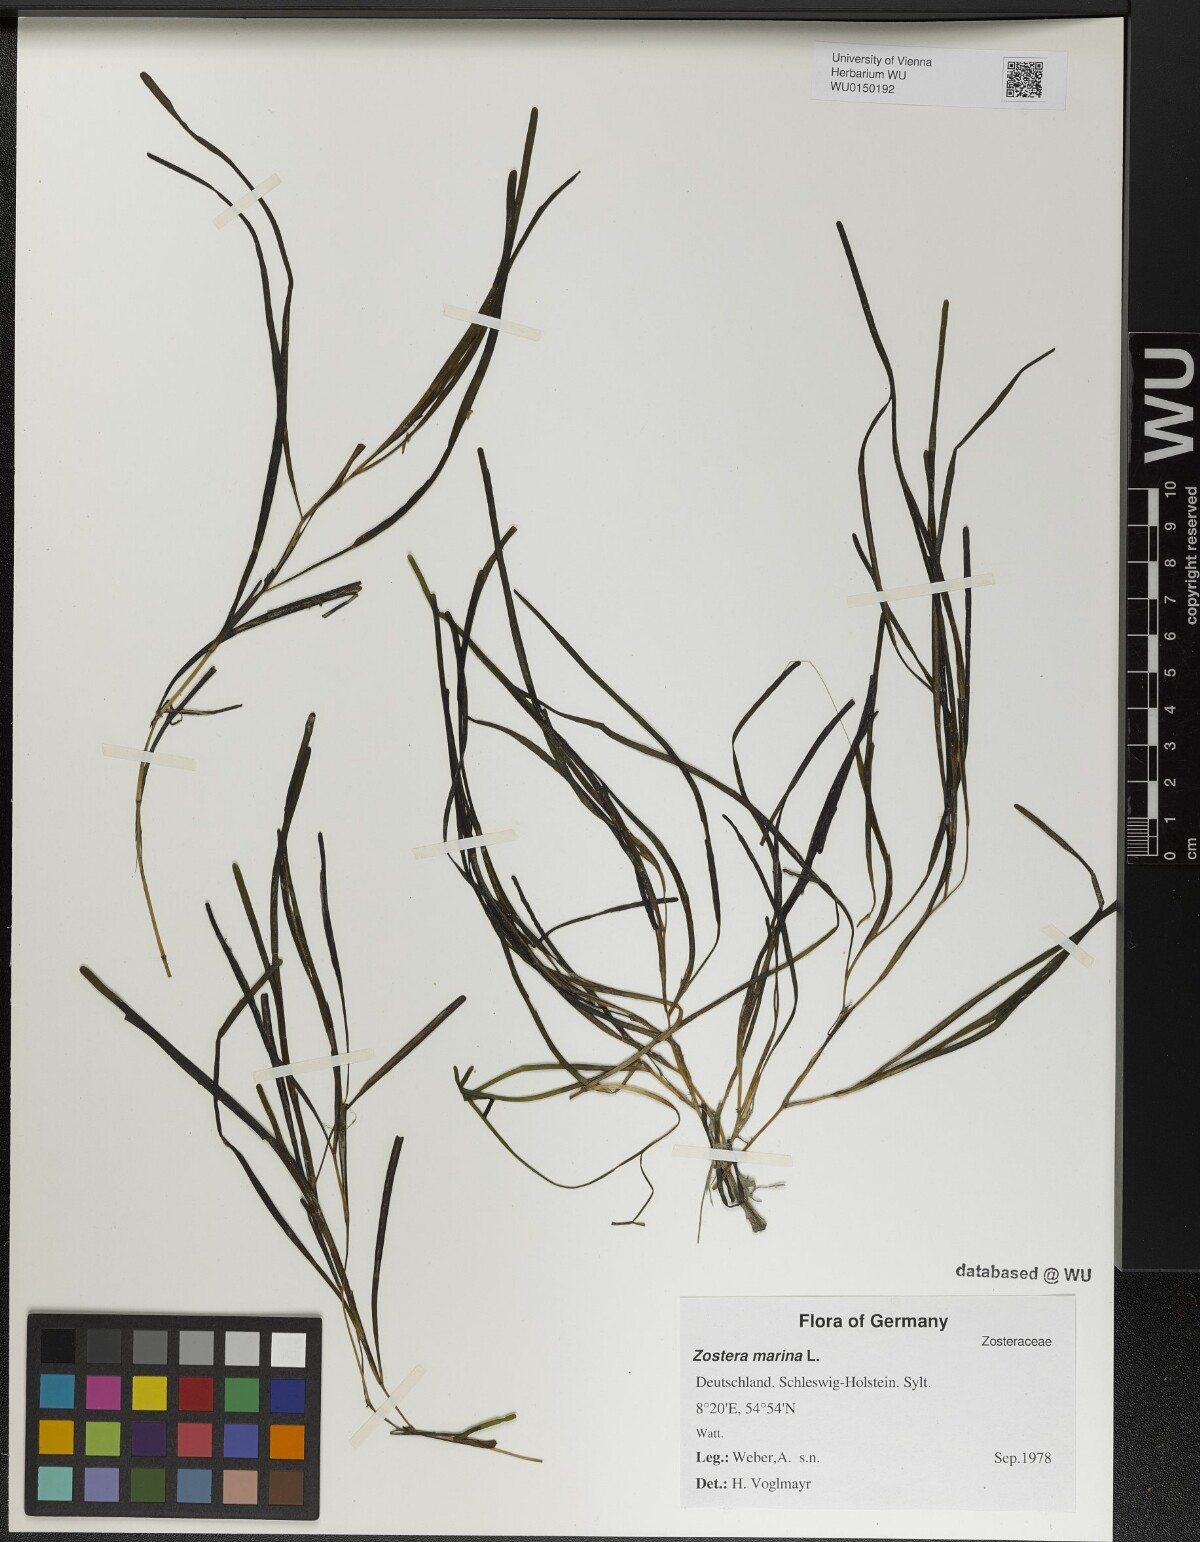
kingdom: Plantae
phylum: Tracheophyta
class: Liliopsida
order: Alismatales
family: Zosteraceae
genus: Zostera
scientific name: Zostera marina
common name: Eelgrass
